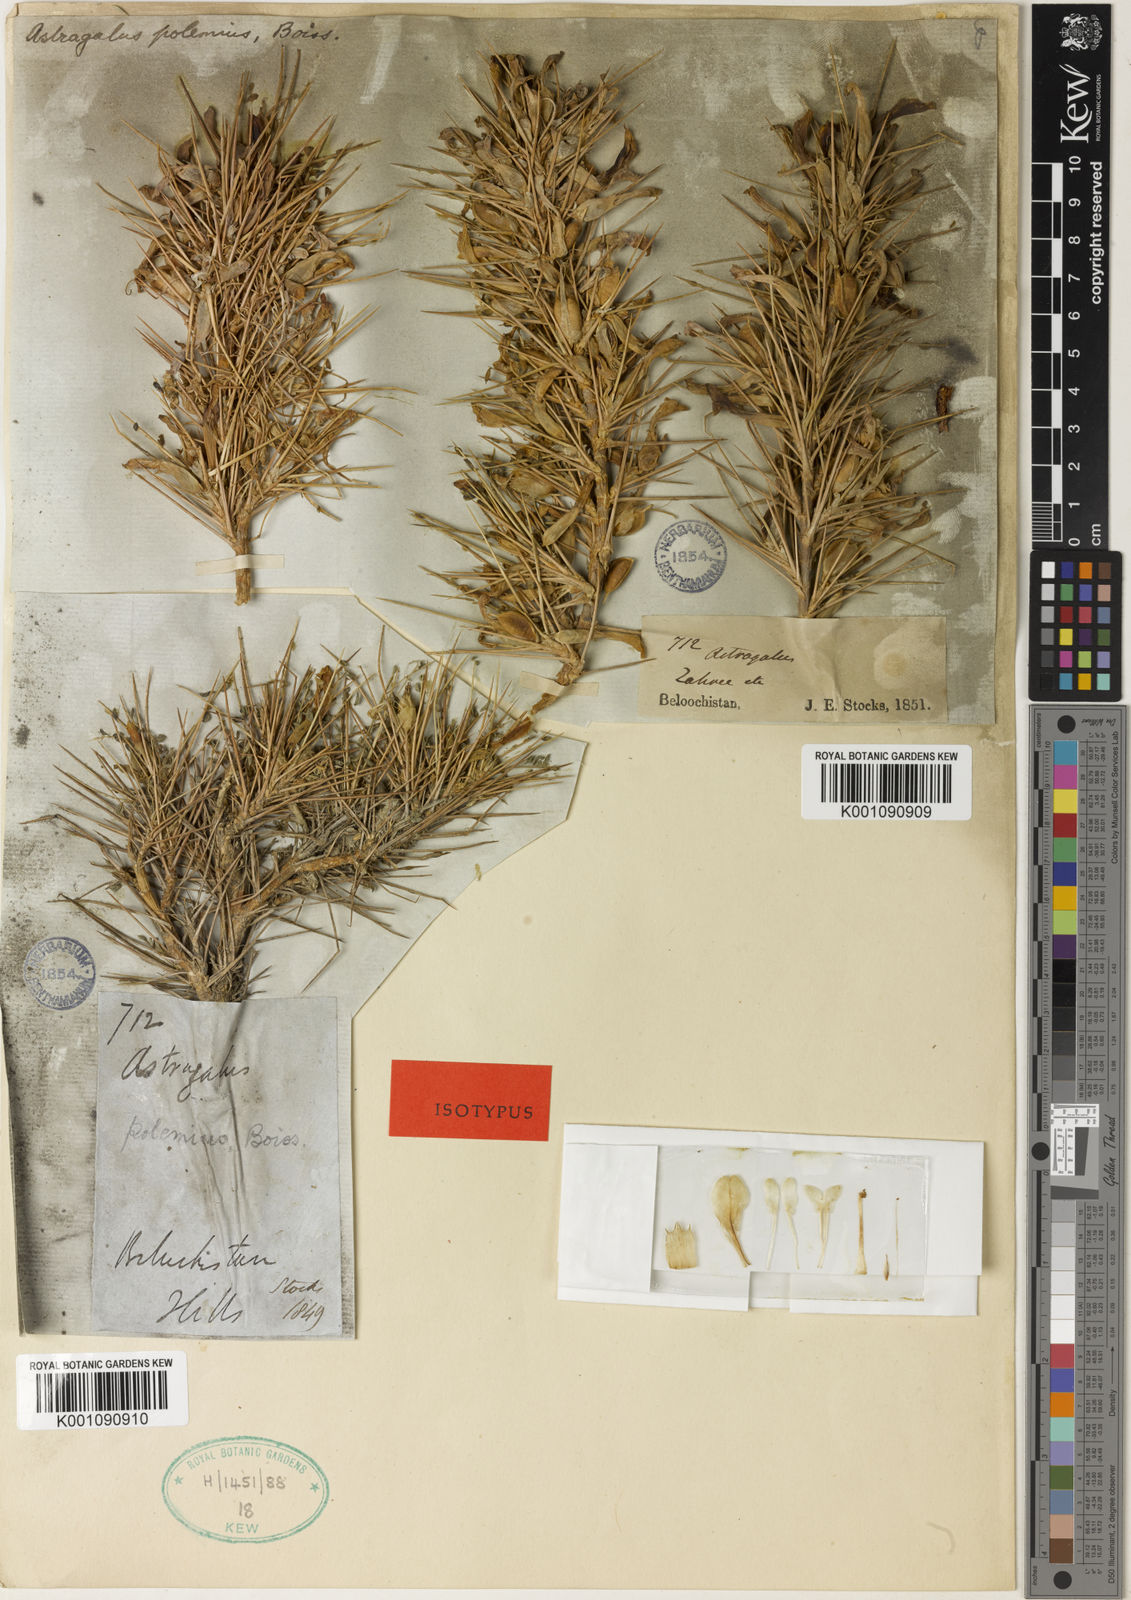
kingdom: Plantae
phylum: Tracheophyta
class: Magnoliopsida
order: Fabales
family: Fabaceae
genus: Astragalus
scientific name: Astragalus
